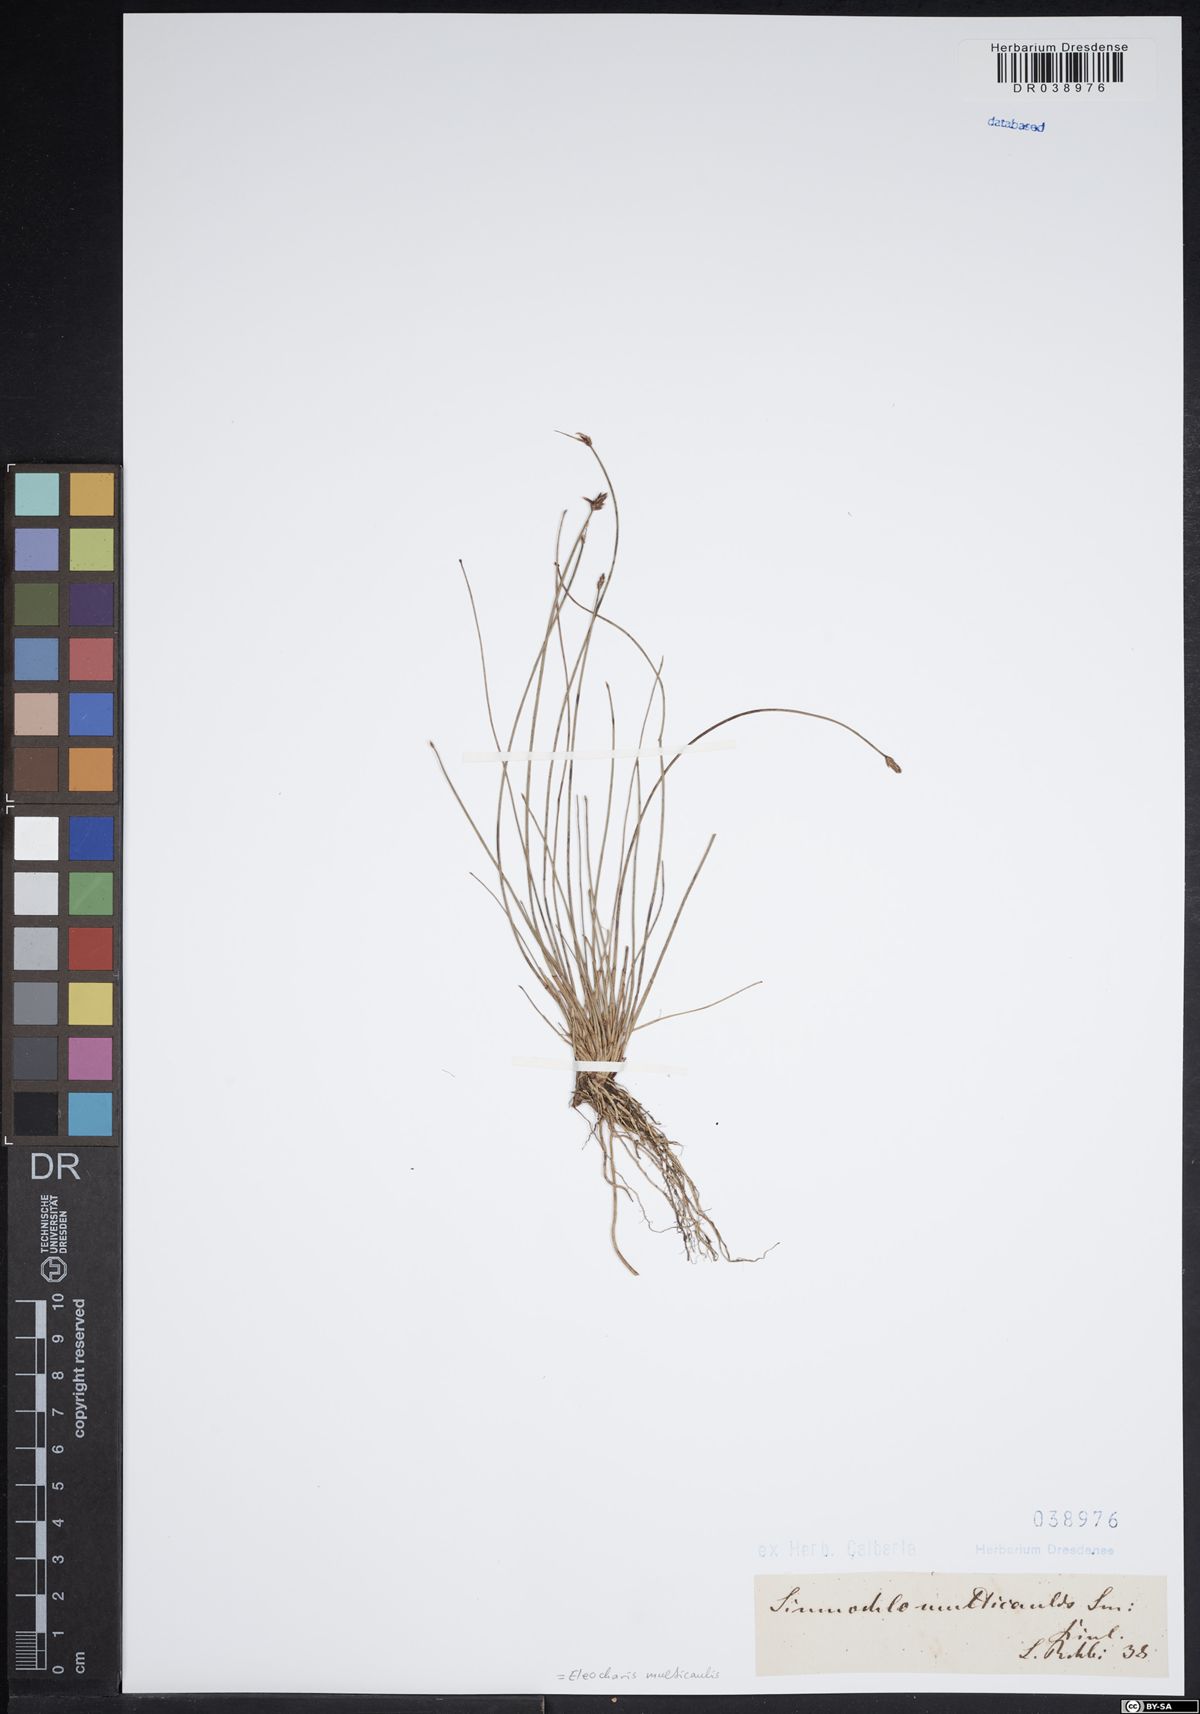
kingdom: Plantae
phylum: Tracheophyta
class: Liliopsida
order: Poales
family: Cyperaceae
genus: Eleocharis
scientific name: Eleocharis multicaulis
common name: Many-stalked spike-rush
